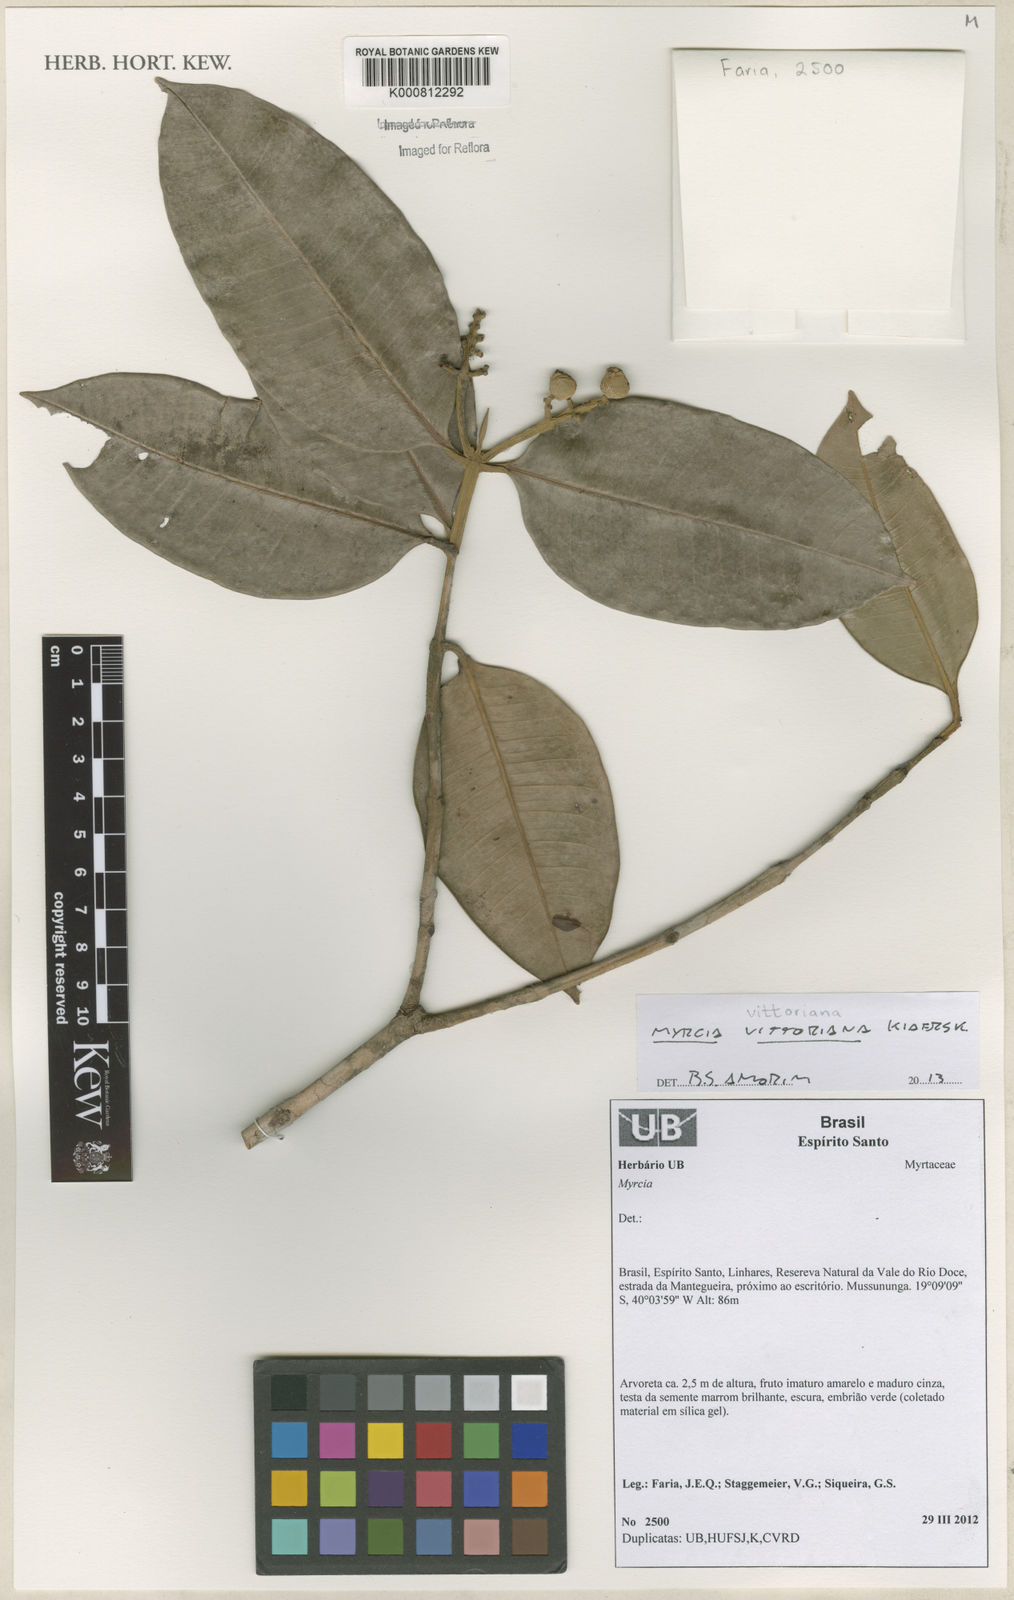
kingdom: Plantae
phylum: Tracheophyta
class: Magnoliopsida
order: Myrtales
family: Myrtaceae
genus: Myrcia
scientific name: Myrcia vittoriana
